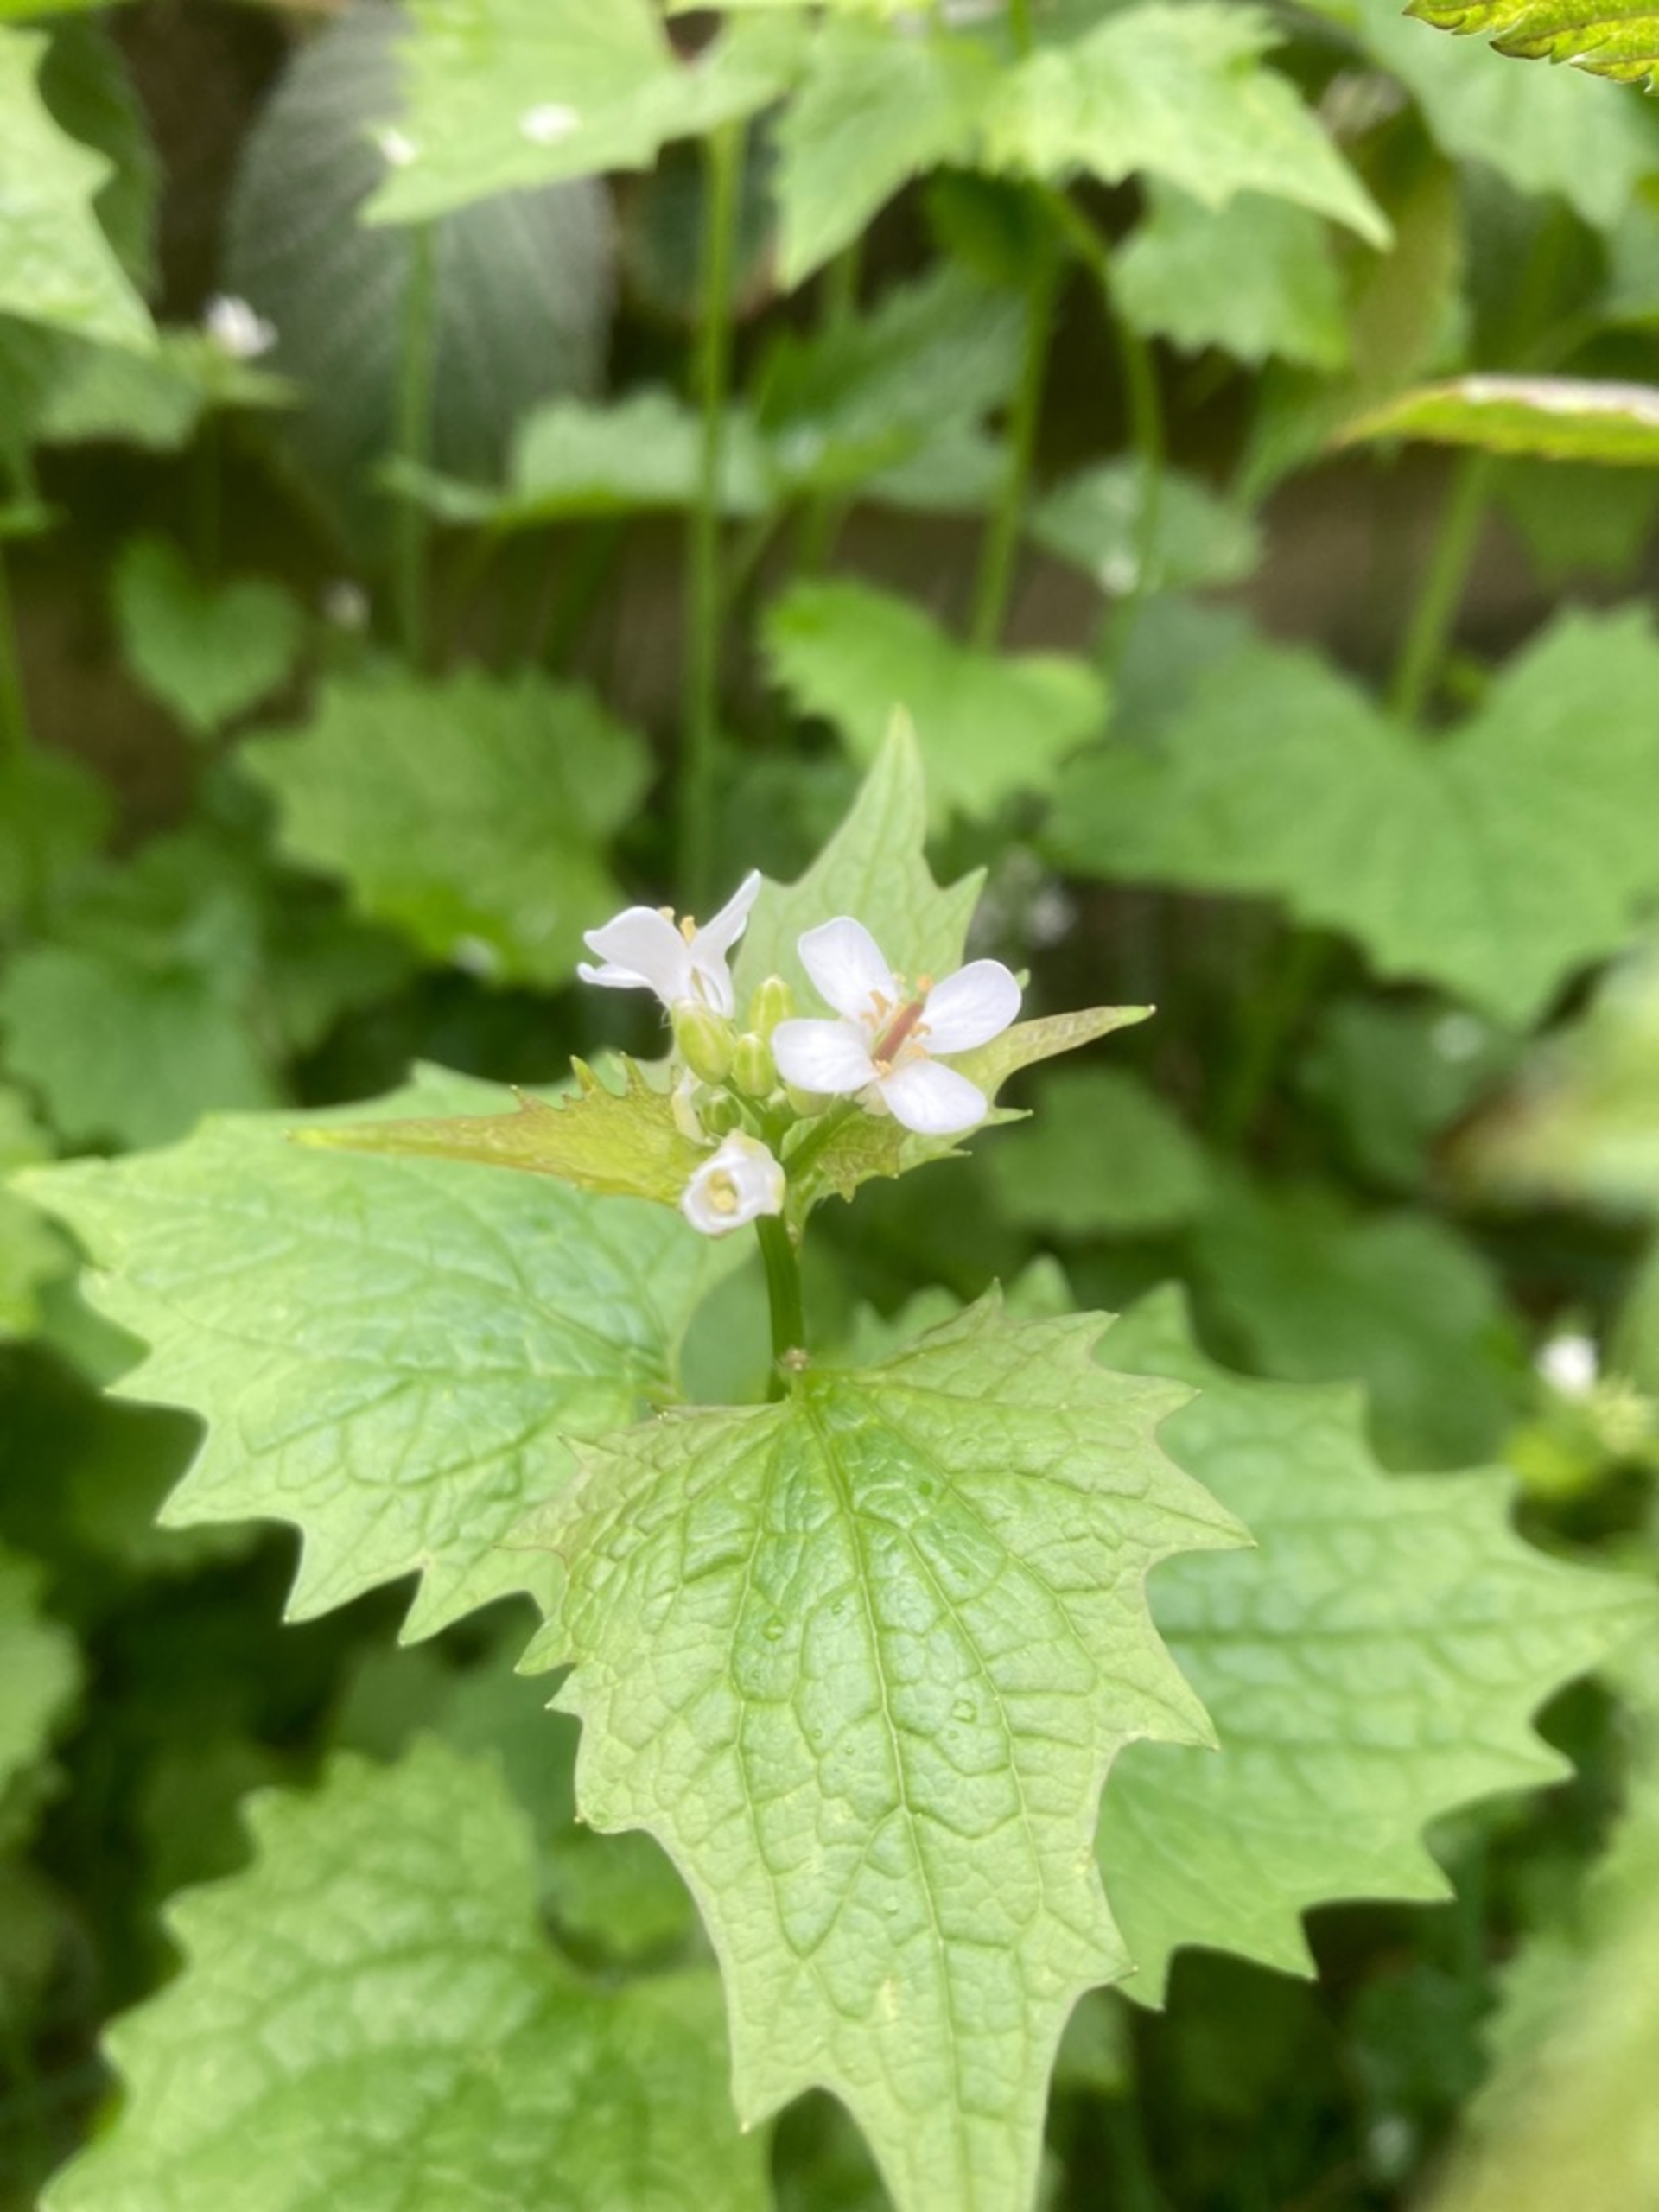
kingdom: Plantae
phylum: Tracheophyta
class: Magnoliopsida
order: Brassicales
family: Brassicaceae
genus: Alliaria
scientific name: Alliaria petiolata
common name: Løgkarse
